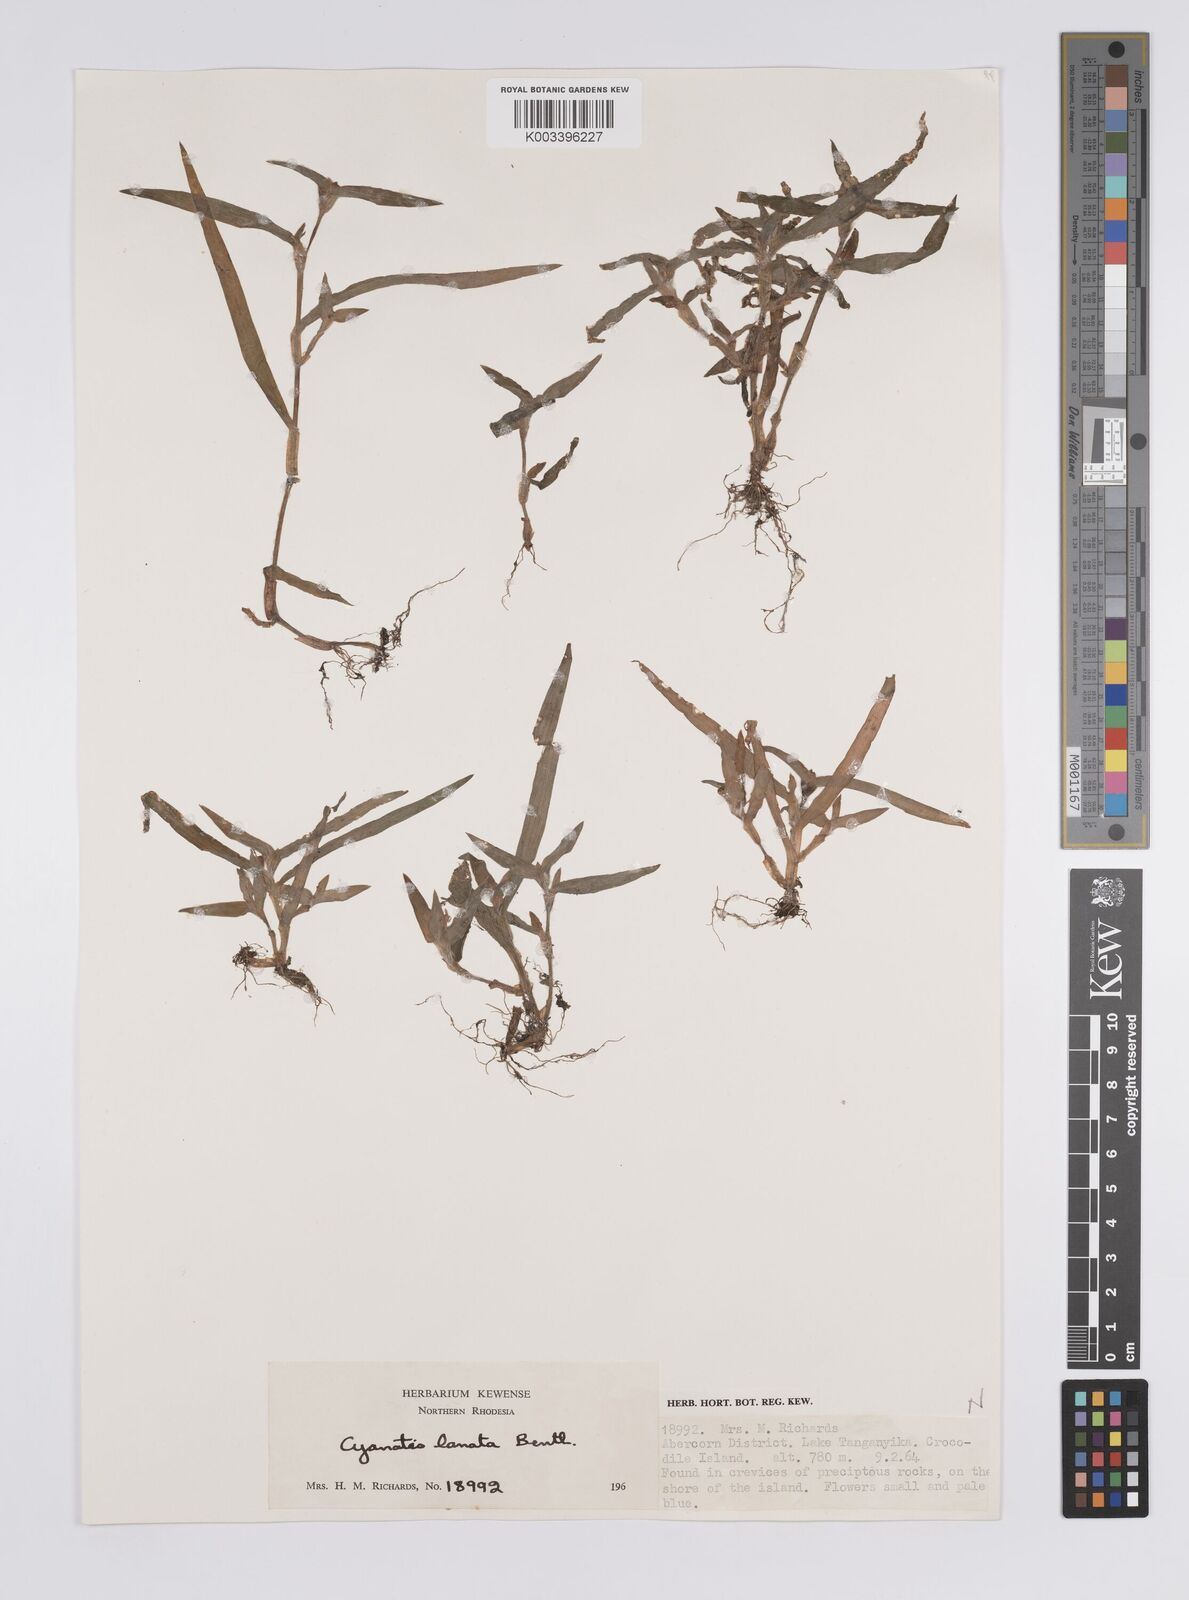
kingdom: Plantae
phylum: Tracheophyta
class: Liliopsida
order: Commelinales
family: Commelinaceae
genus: Cyanotis
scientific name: Cyanotis lanata
